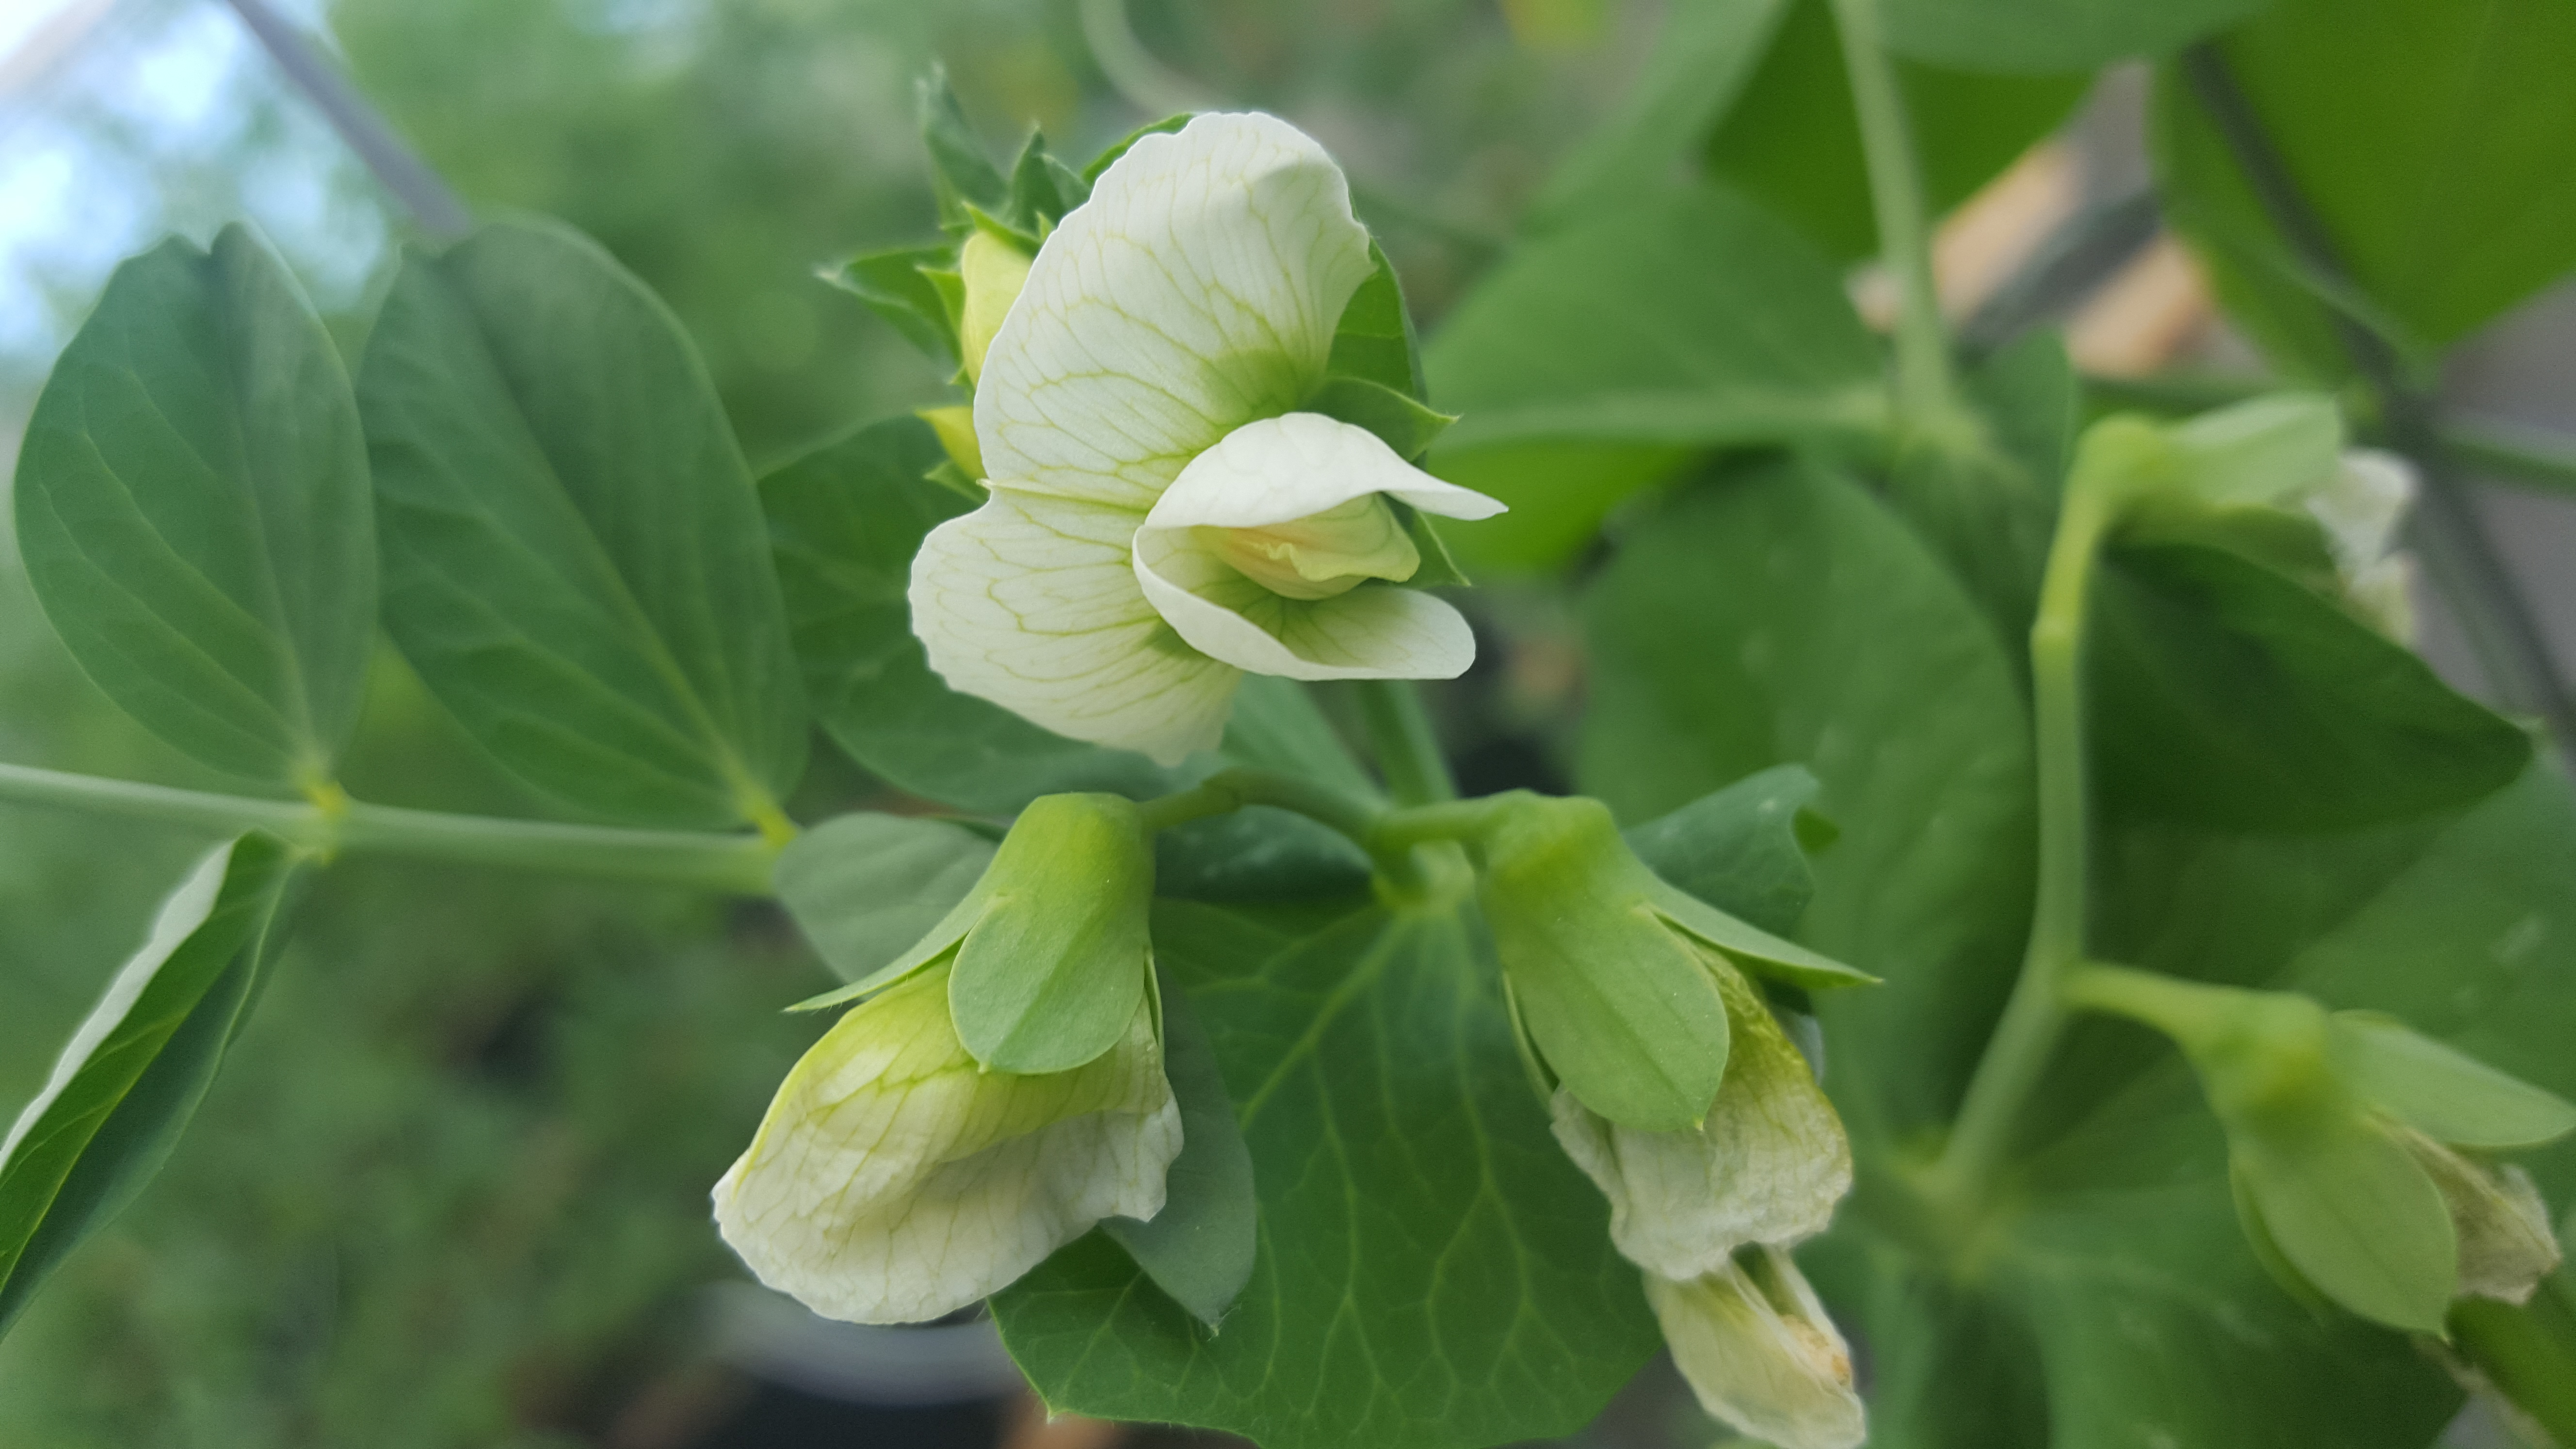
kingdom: Plantae
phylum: Tracheophyta
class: Magnoliopsida
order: Fabales
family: Fabaceae
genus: Lathyrus
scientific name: Lathyrus oleraceus
